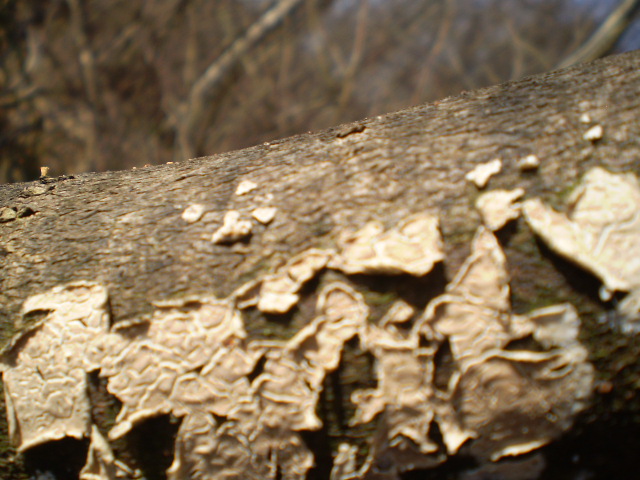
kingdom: Fungi
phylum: Basidiomycota
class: Agaricomycetes
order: Agaricales
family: Physalacriaceae
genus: Cylindrobasidium
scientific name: Cylindrobasidium evolvens
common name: sprækkehinde
